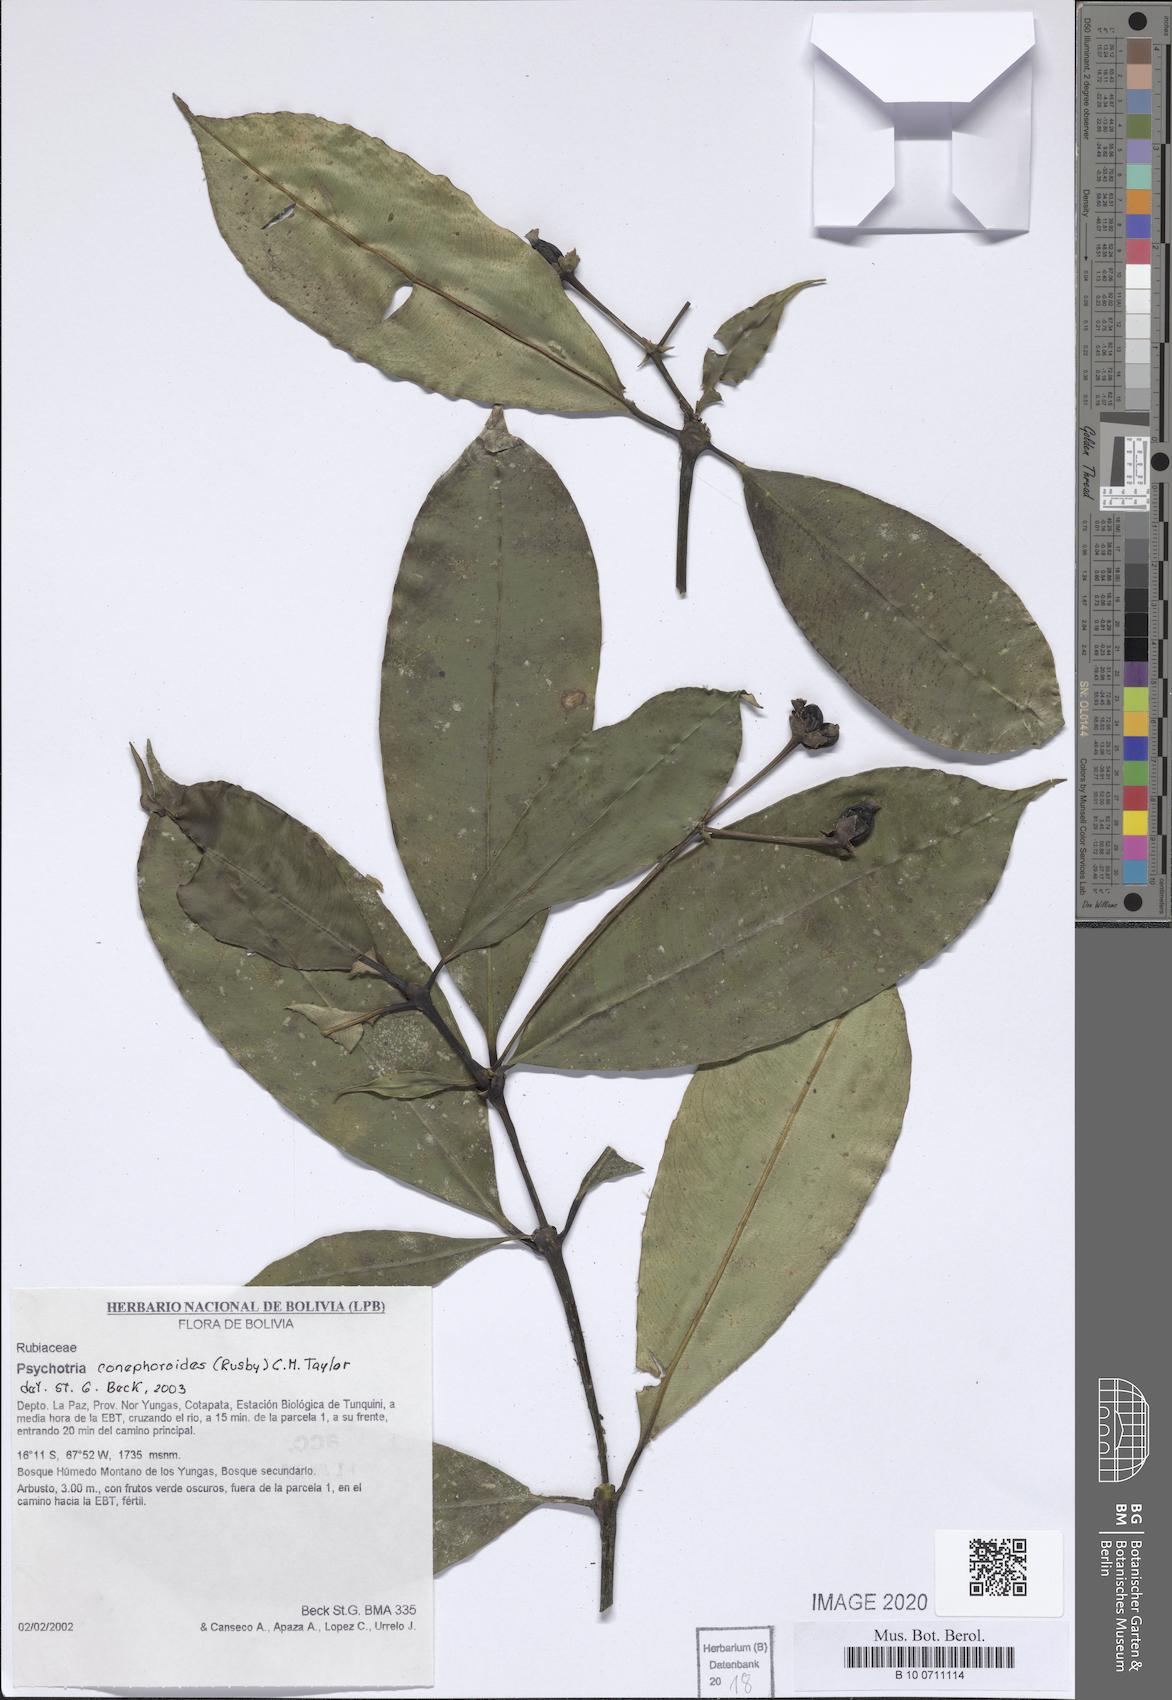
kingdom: Plantae
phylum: Tracheophyta
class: Magnoliopsida
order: Gentianales
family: Rubiaceae
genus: Palicourea
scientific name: Palicourea conephoroides
